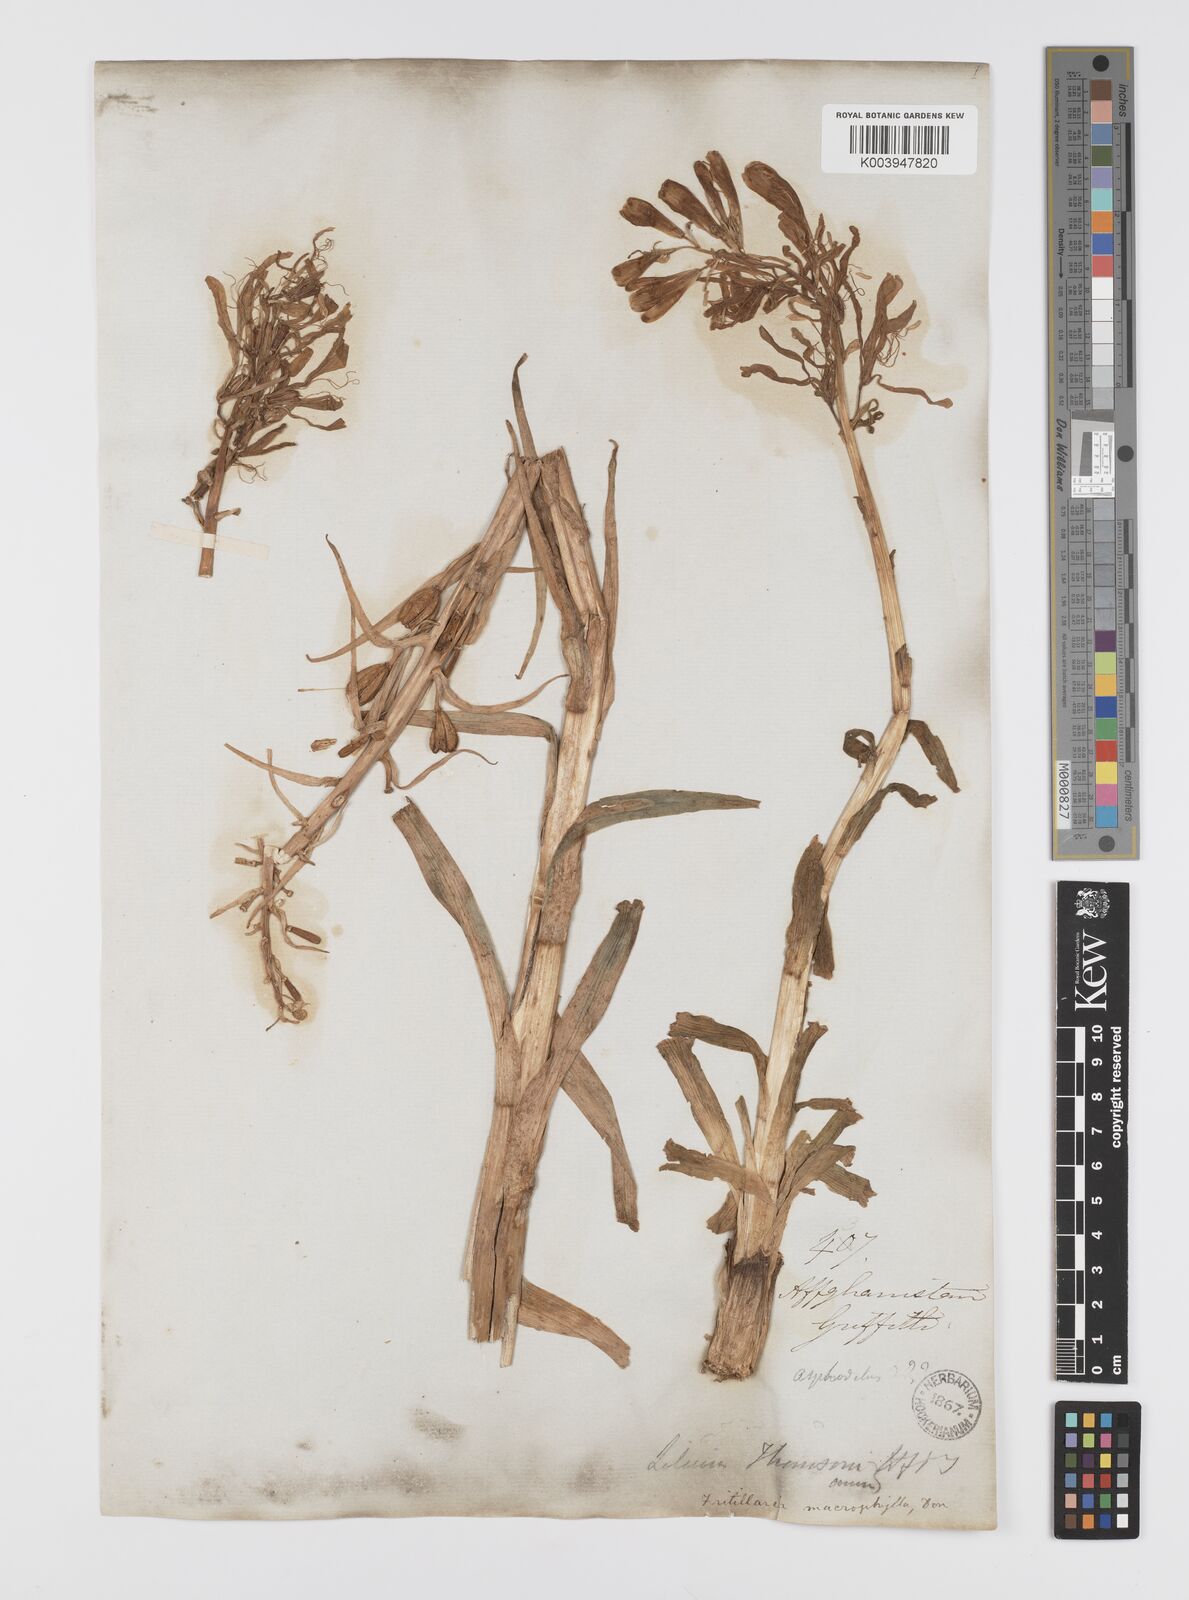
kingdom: Plantae
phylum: Tracheophyta
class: Liliopsida
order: Liliales
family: Liliaceae
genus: Notholirion
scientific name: Notholirion thomsonianum
